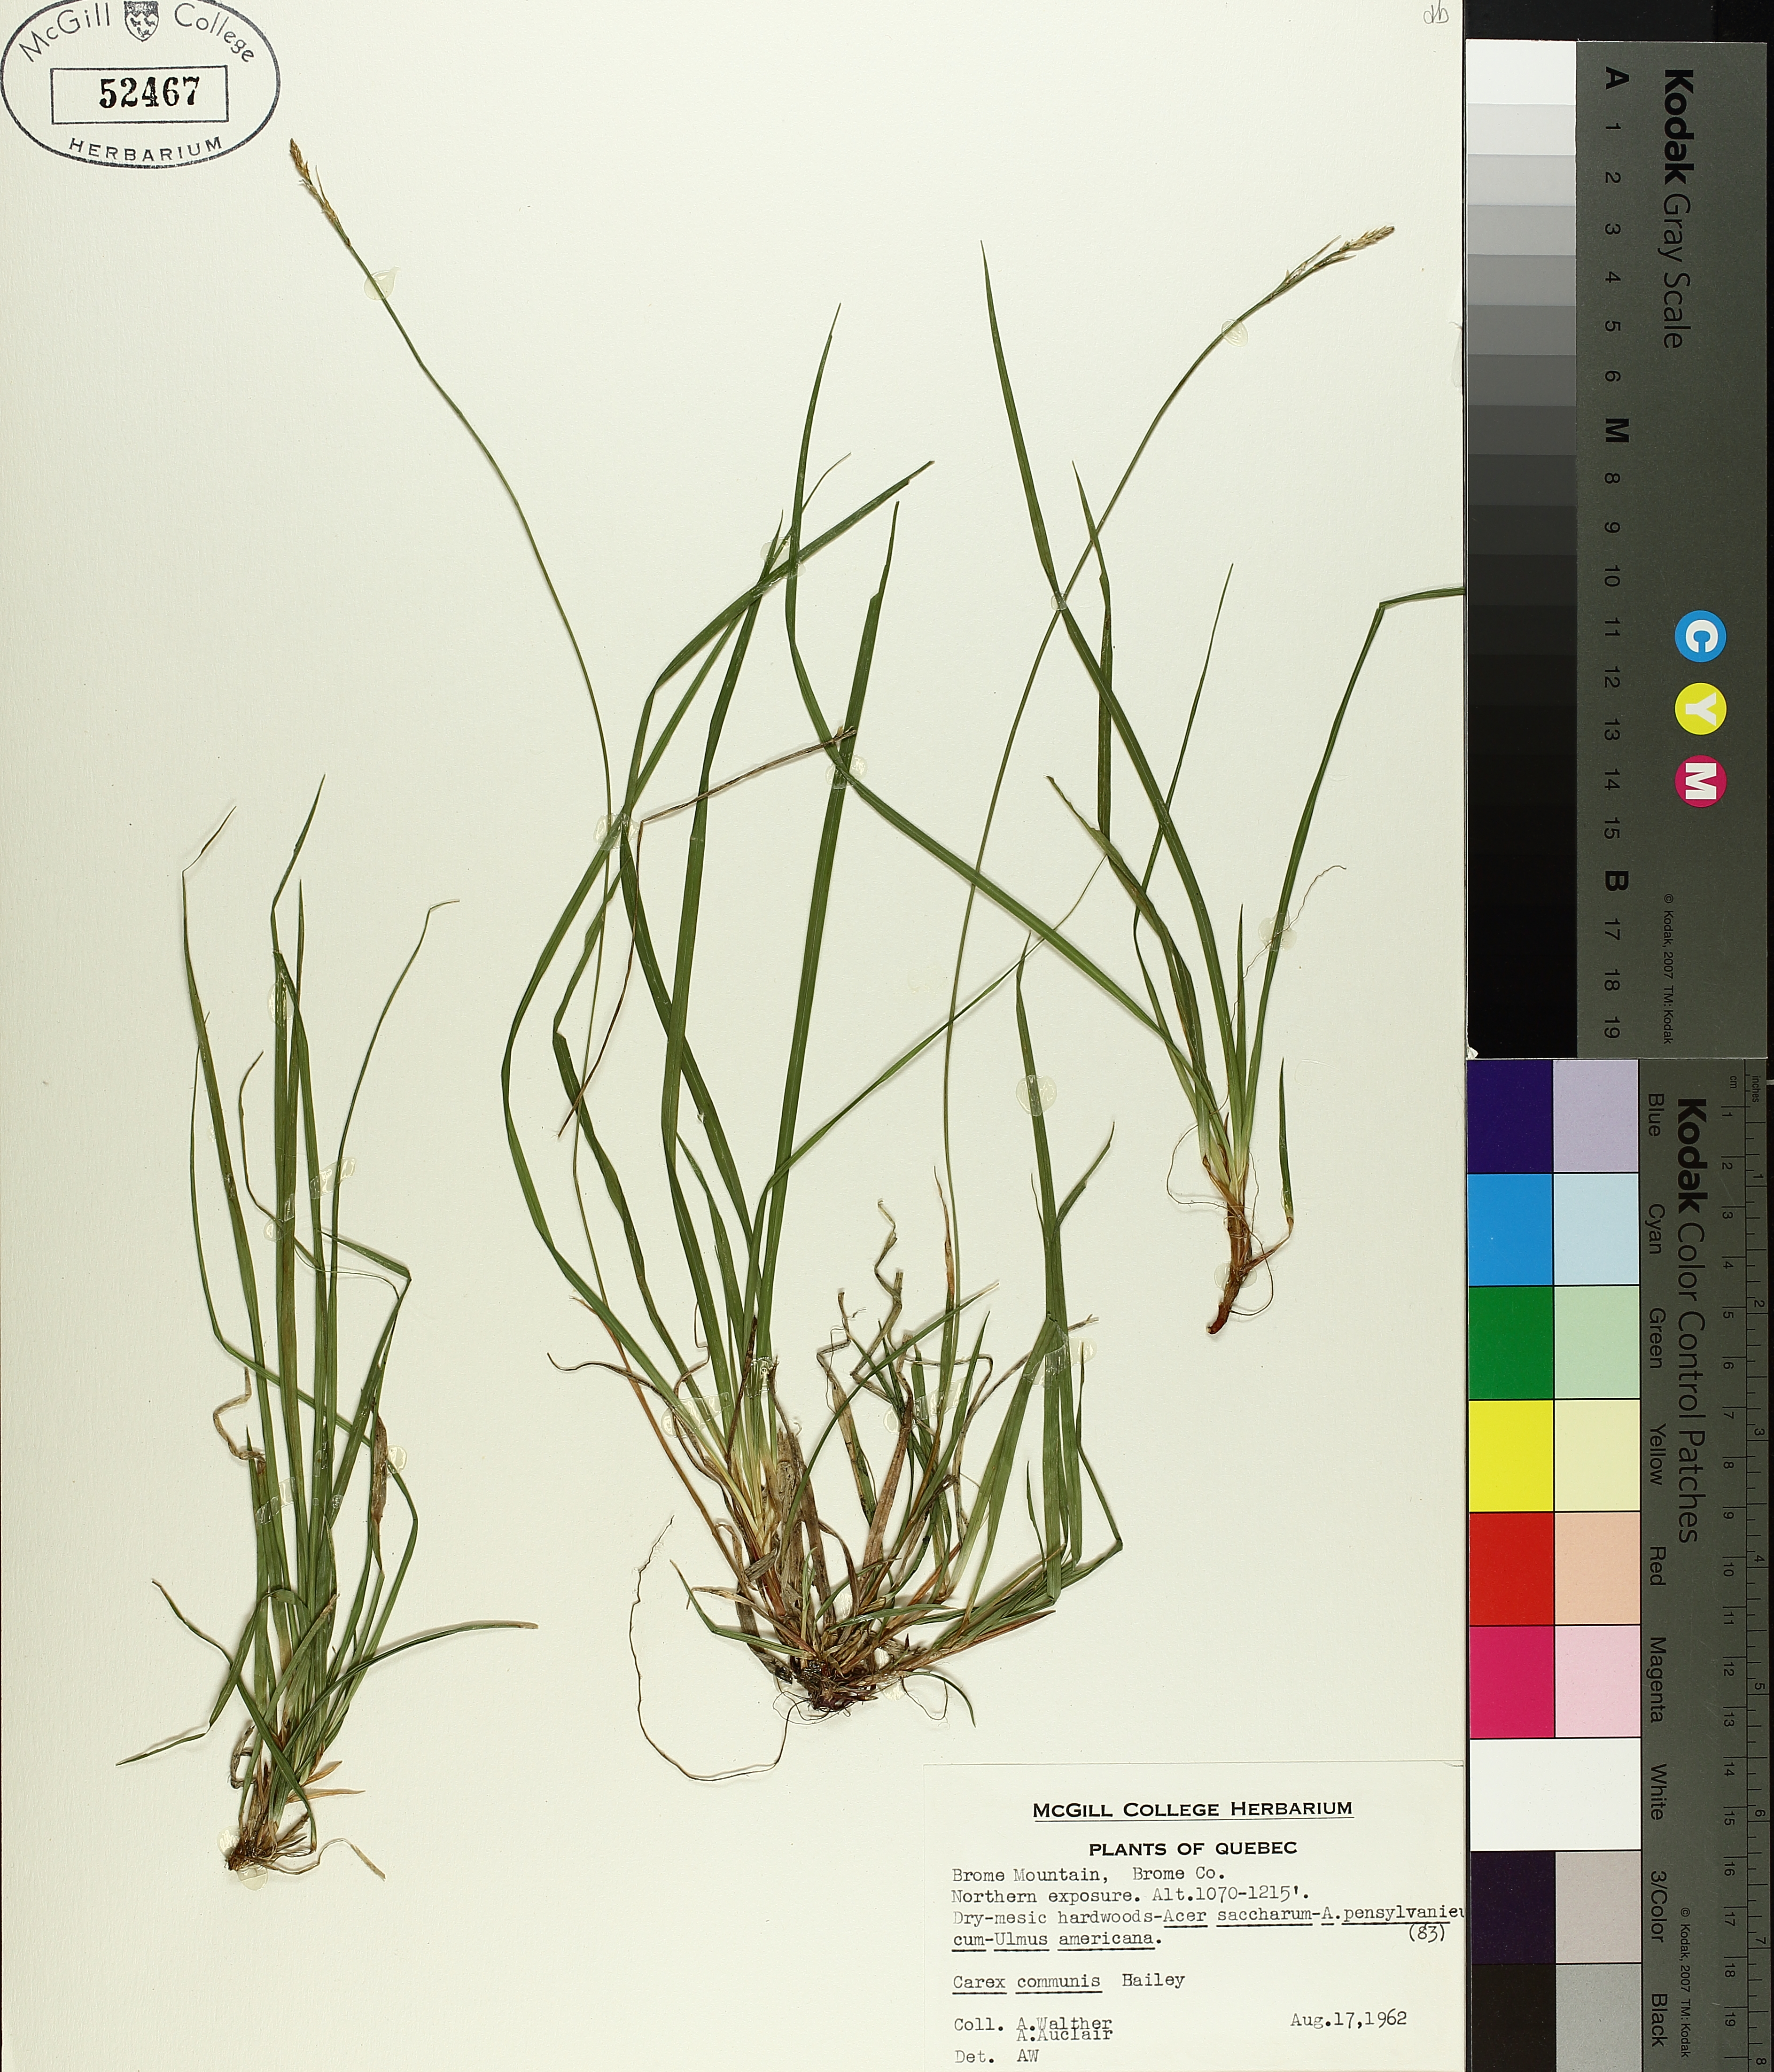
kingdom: Plantae
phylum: Tracheophyta
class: Liliopsida
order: Poales
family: Cyperaceae
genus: Carex
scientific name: Carex communis
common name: Colonial oak sedge
